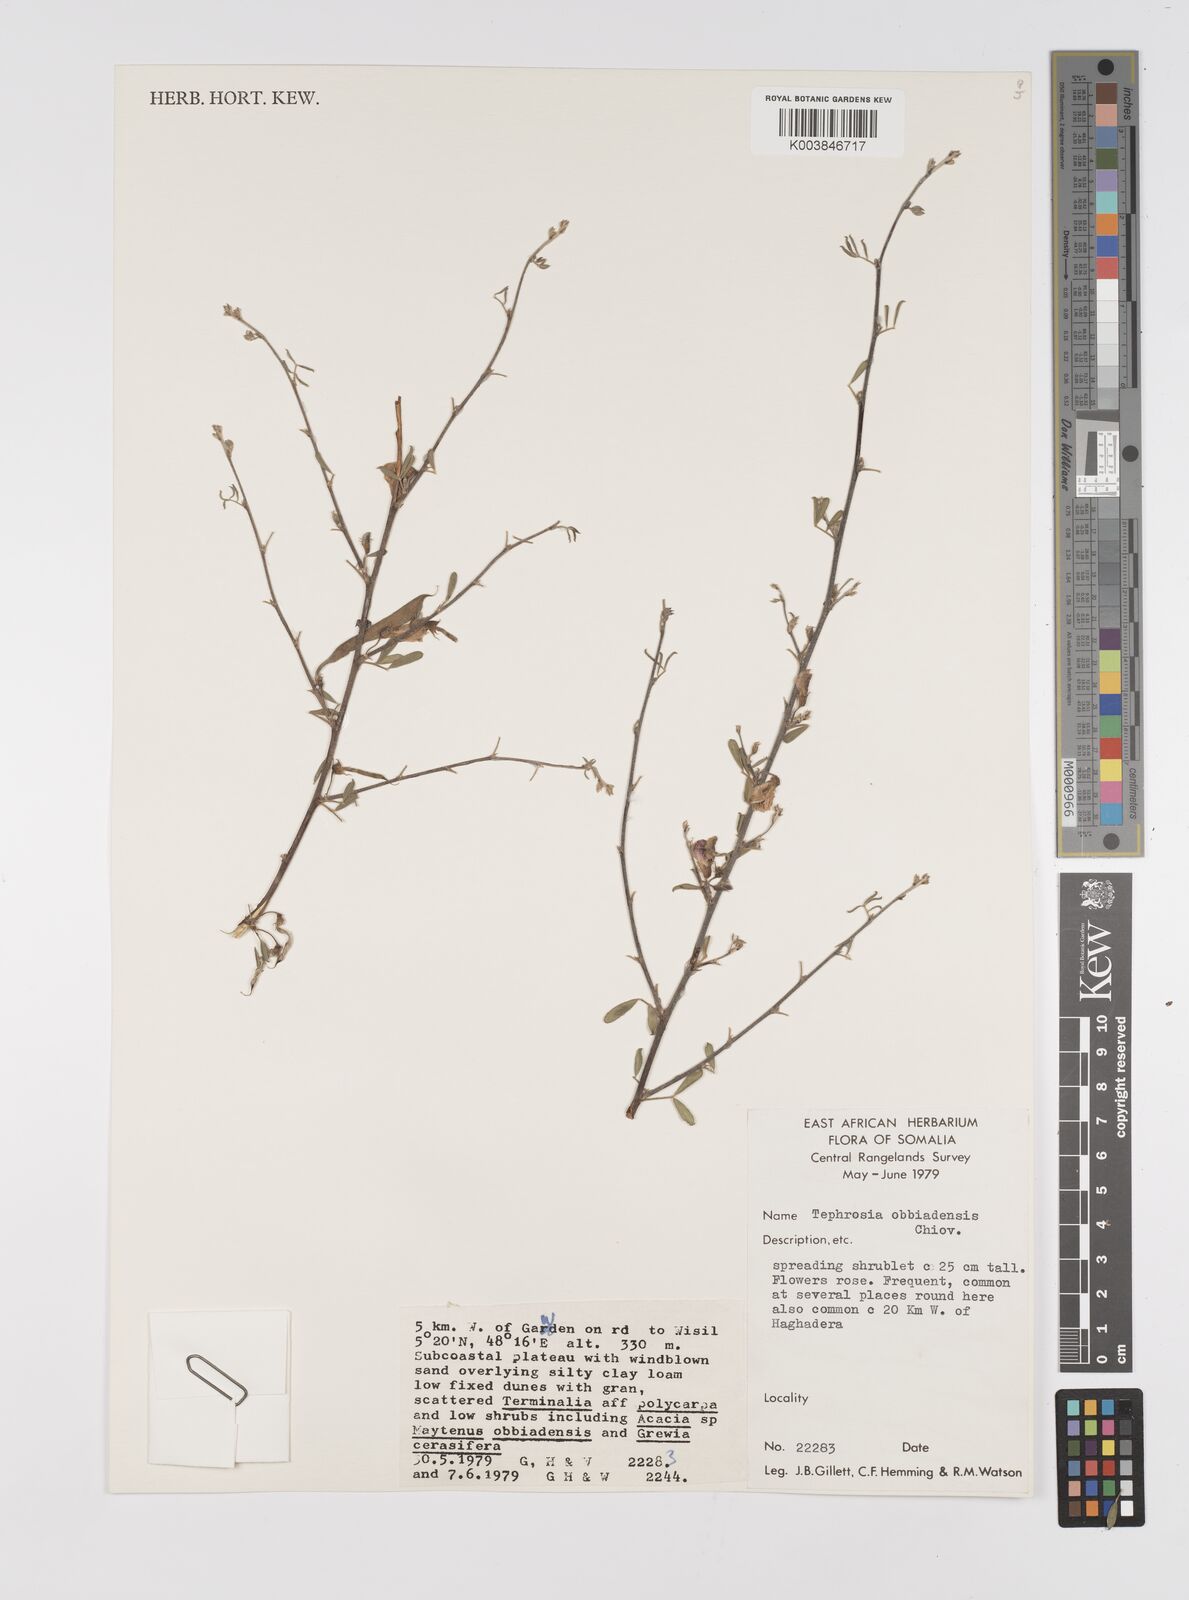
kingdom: Plantae
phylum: Tracheophyta
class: Magnoliopsida
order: Fabales
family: Fabaceae
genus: Tephrosia
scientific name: Tephrosia obbiadensis
